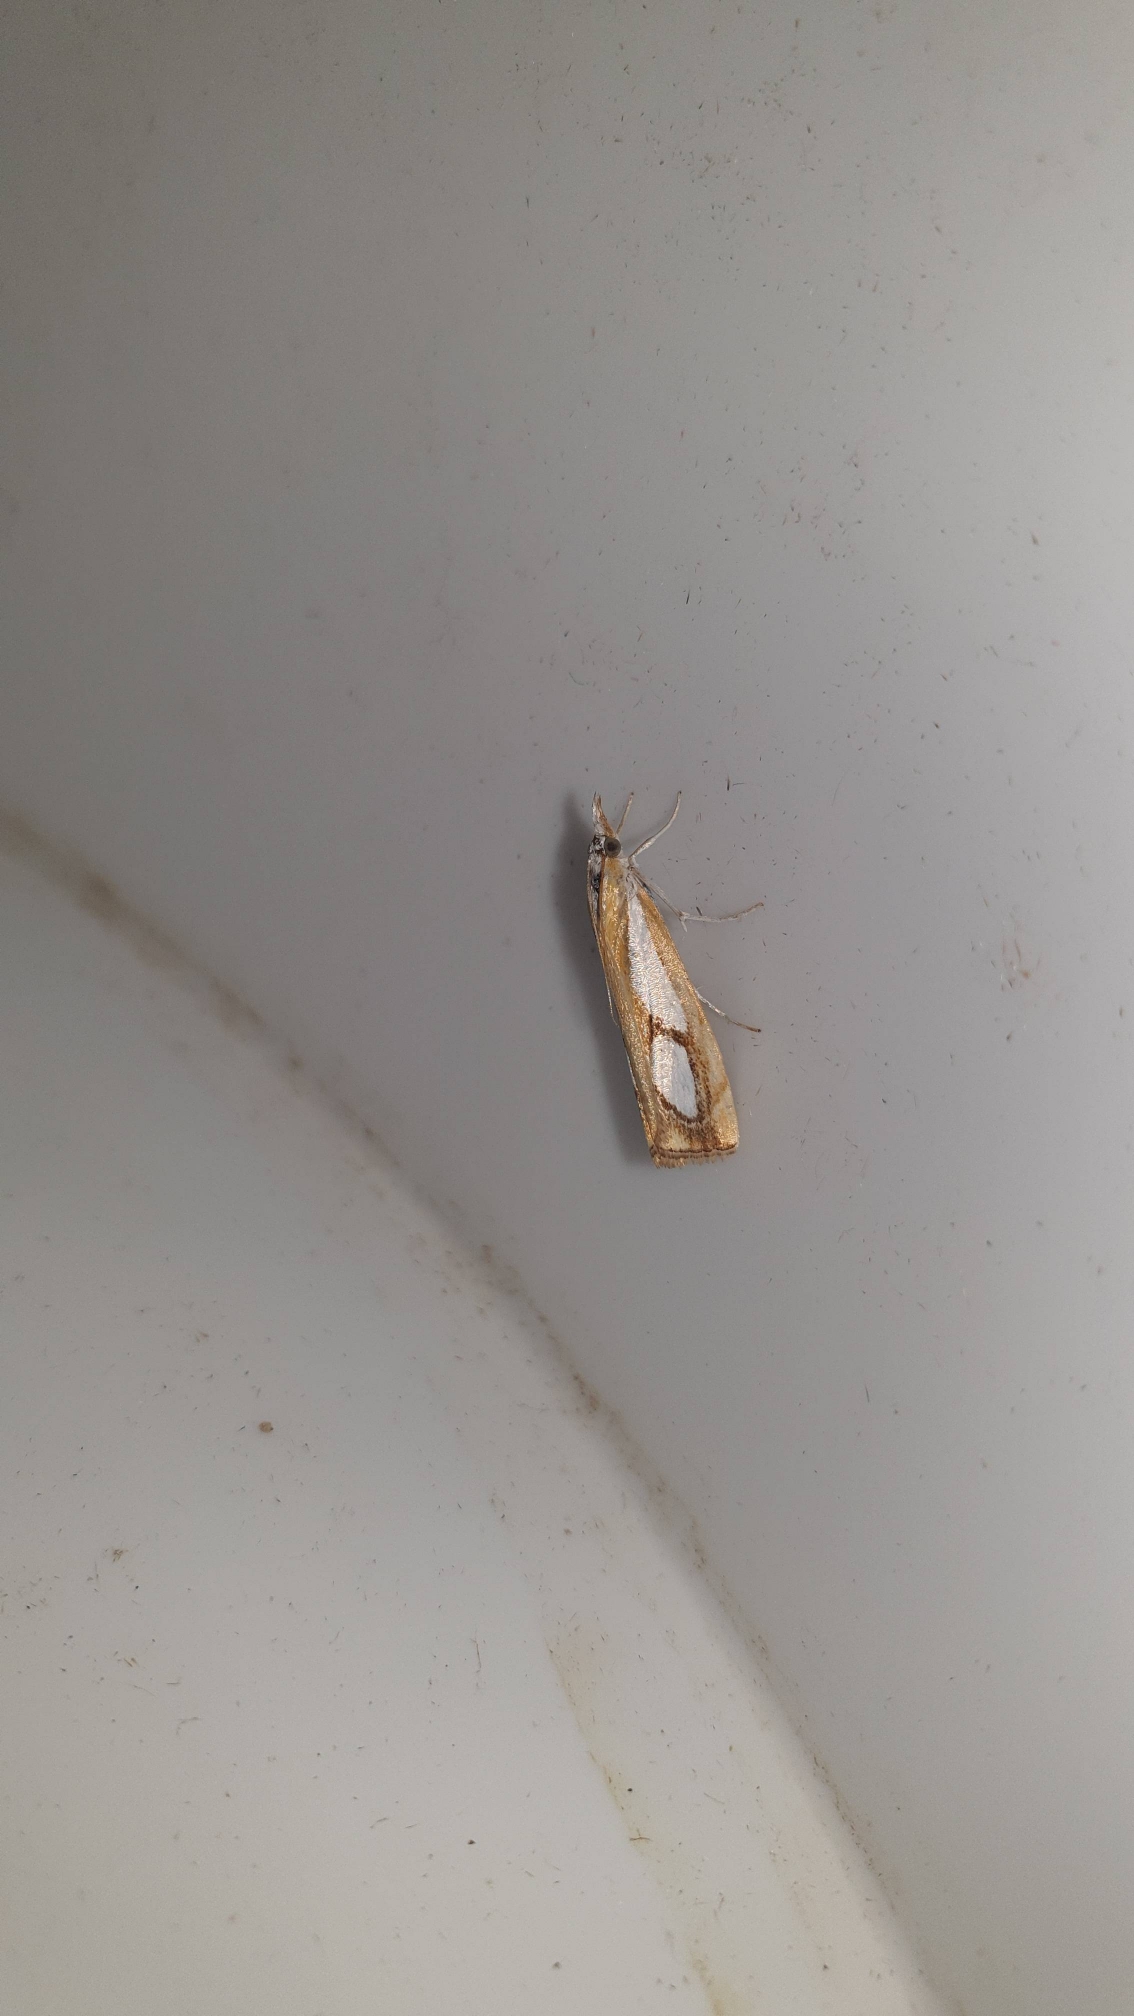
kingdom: Animalia
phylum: Arthropoda
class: Insecta
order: Lepidoptera
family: Crambidae
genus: Catoptria
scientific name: Catoptria pinella
